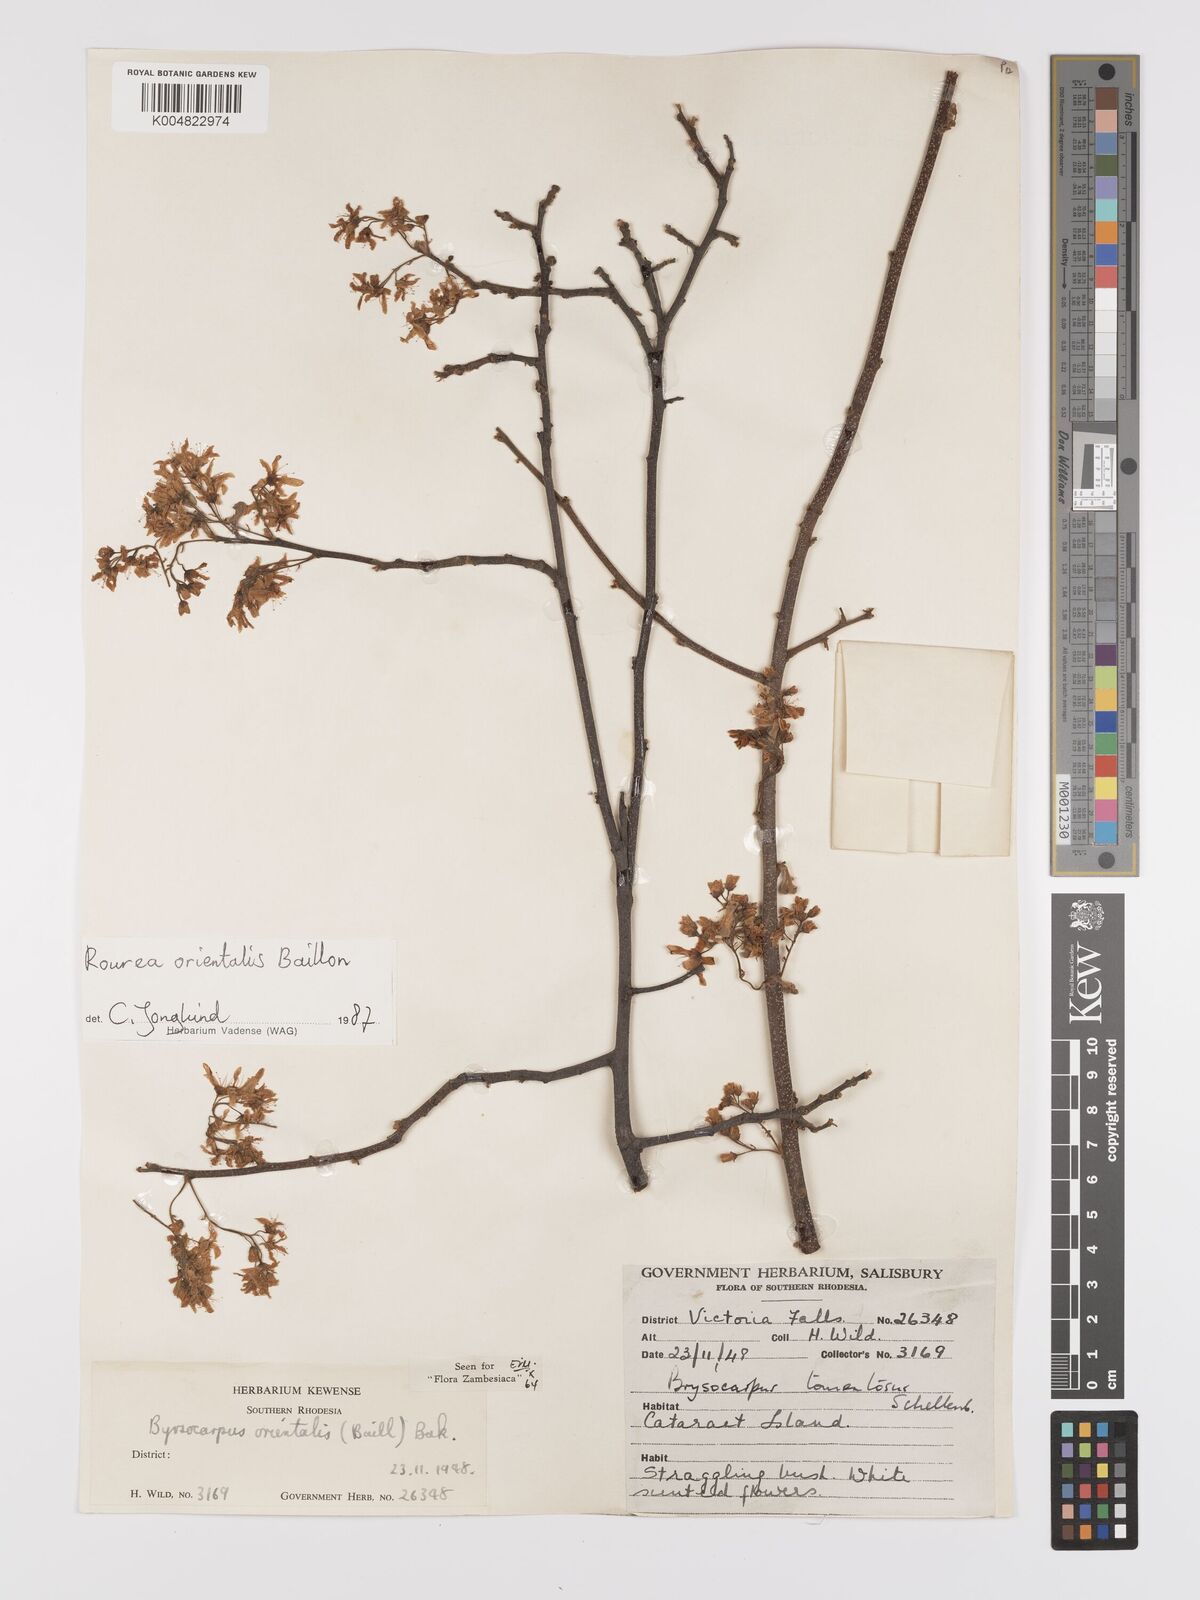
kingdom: Plantae
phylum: Tracheophyta
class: Magnoliopsida
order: Oxalidales
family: Connaraceae
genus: Rourea
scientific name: Rourea orientalis
